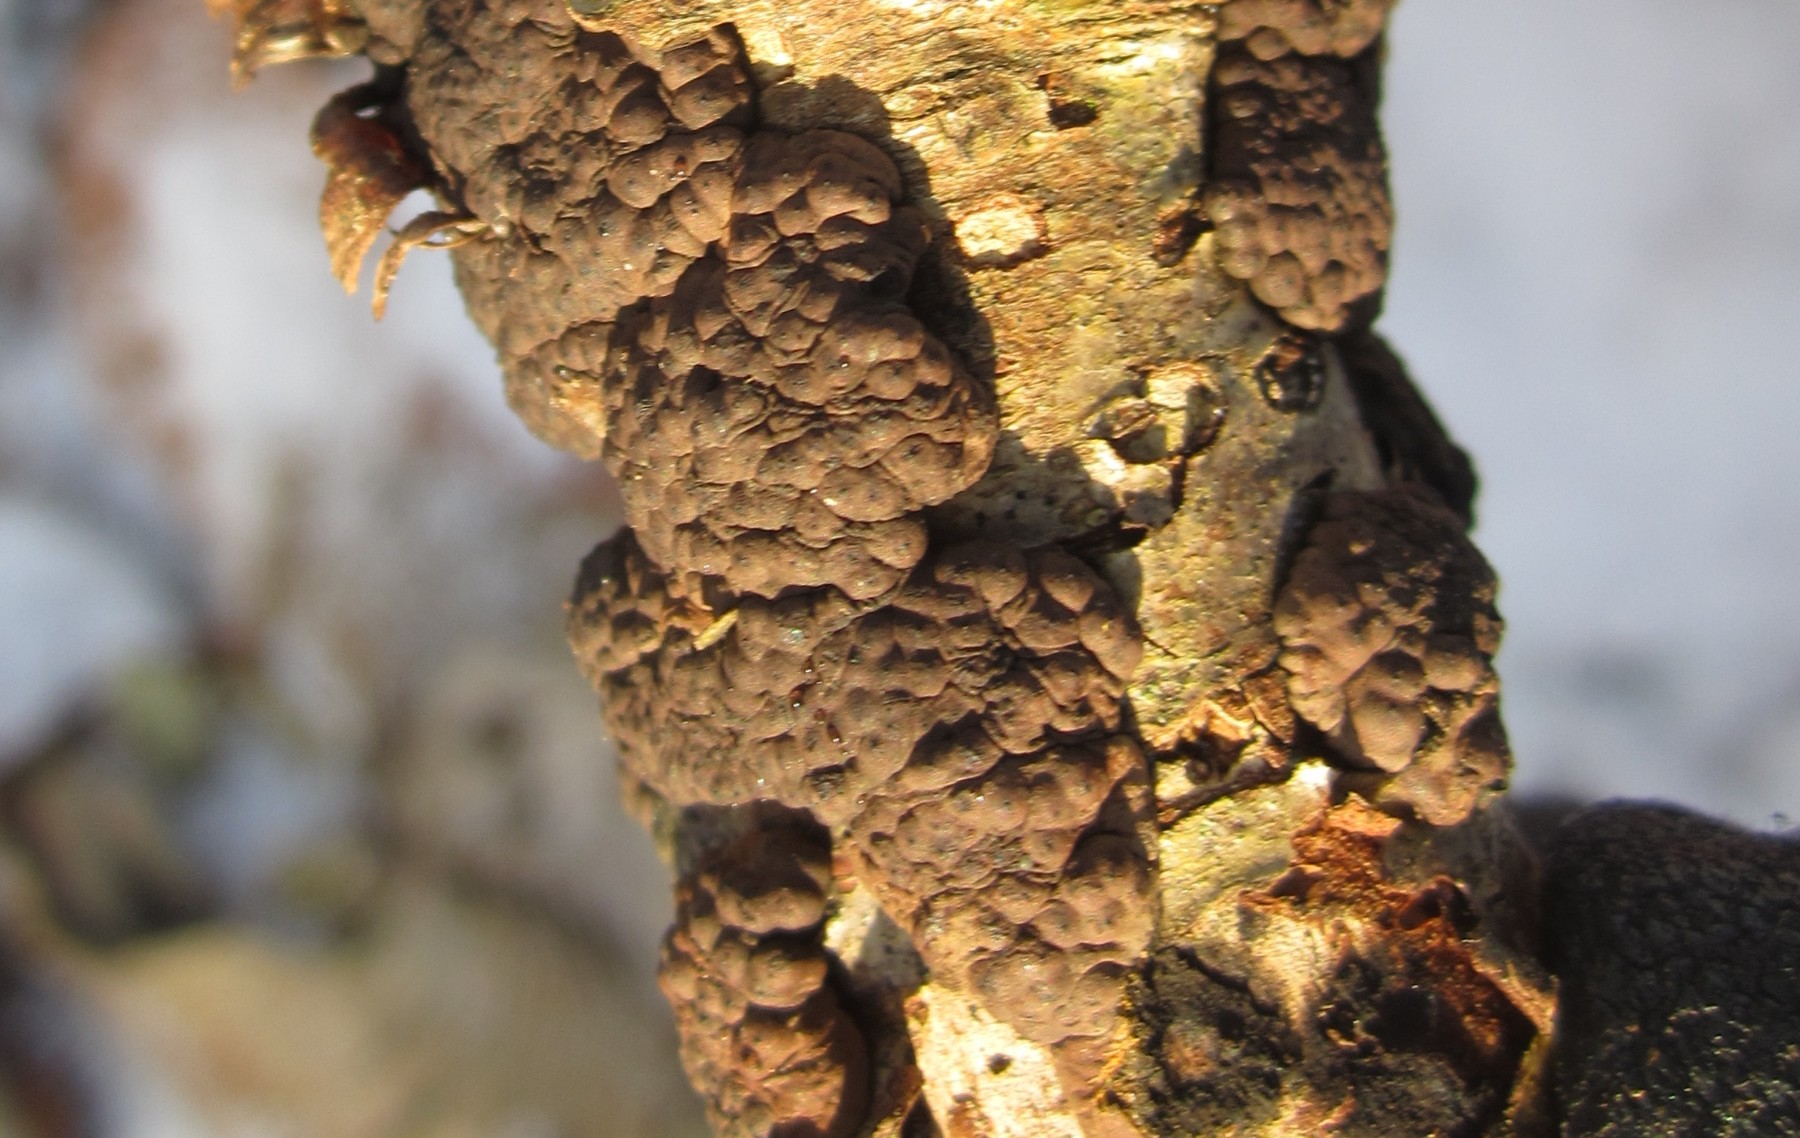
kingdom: Fungi
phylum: Ascomycota
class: Sordariomycetes
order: Xylariales
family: Hypoxylaceae
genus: Jackrogersella
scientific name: Jackrogersella cohaerens
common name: sammenflydende kulbær
